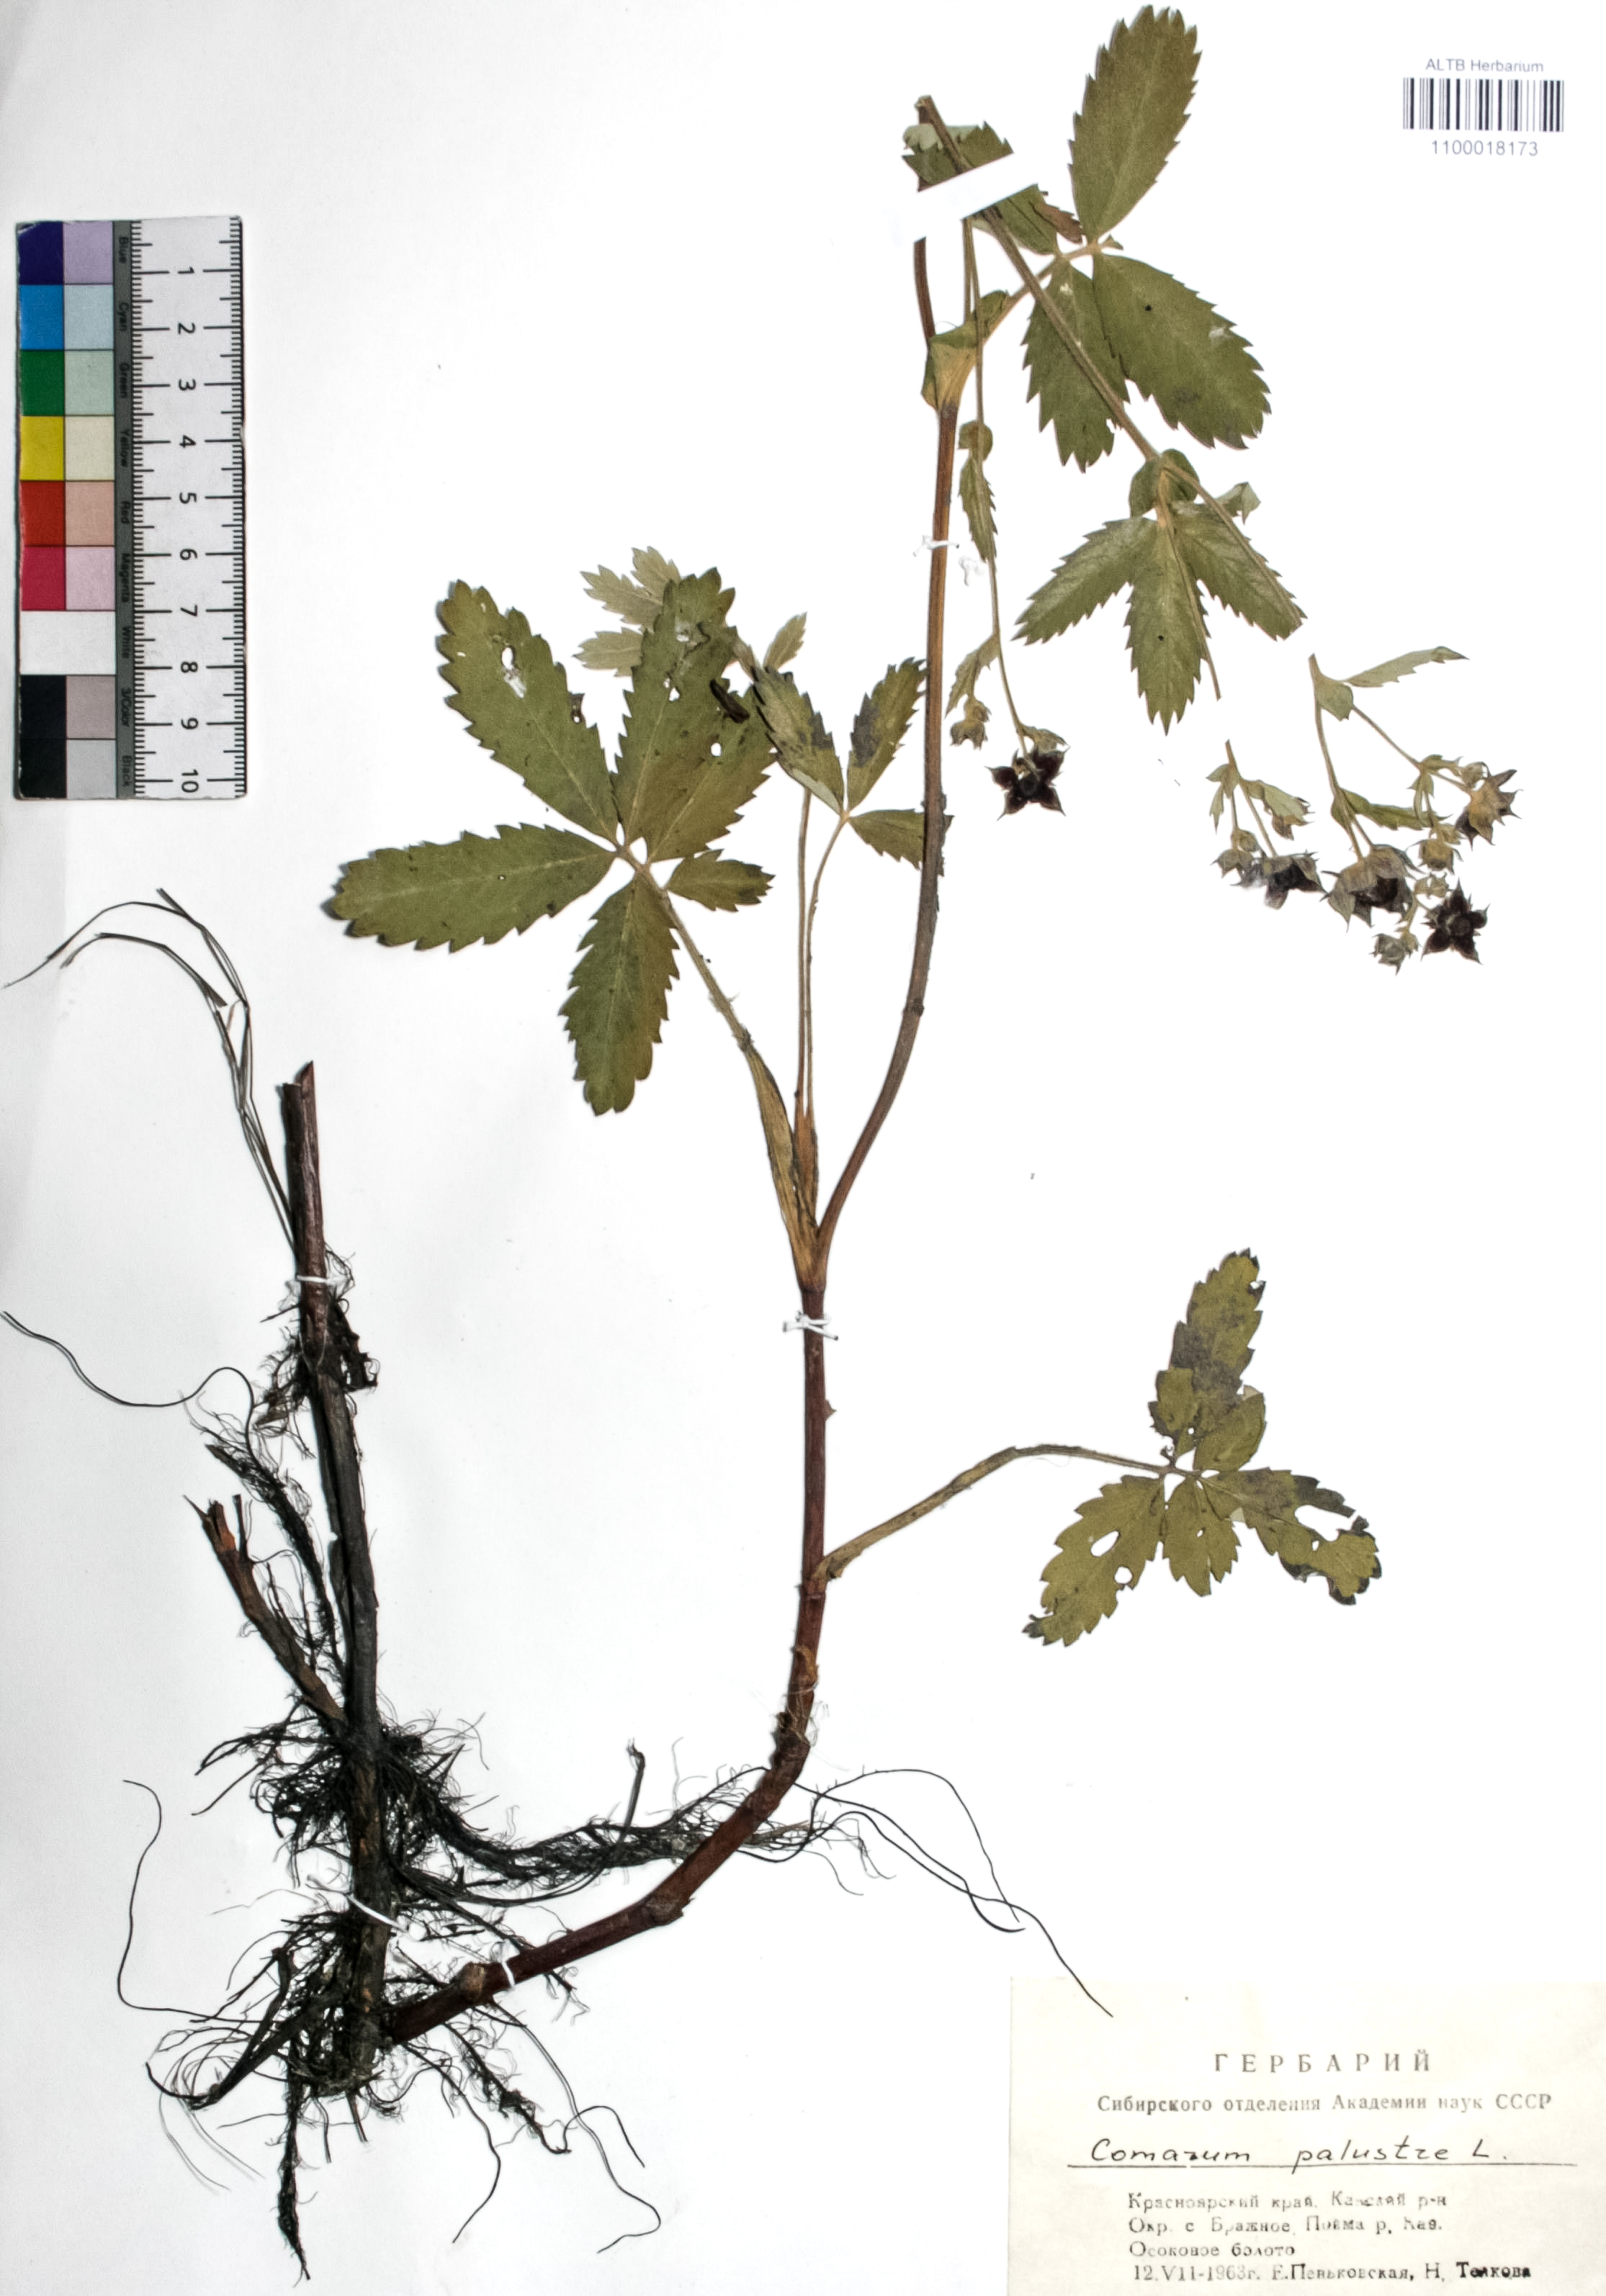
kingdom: Plantae
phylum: Tracheophyta
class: Magnoliopsida
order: Rosales
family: Rosaceae
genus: Comarum
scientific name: Comarum palustre
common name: Marsh cinquefoil
